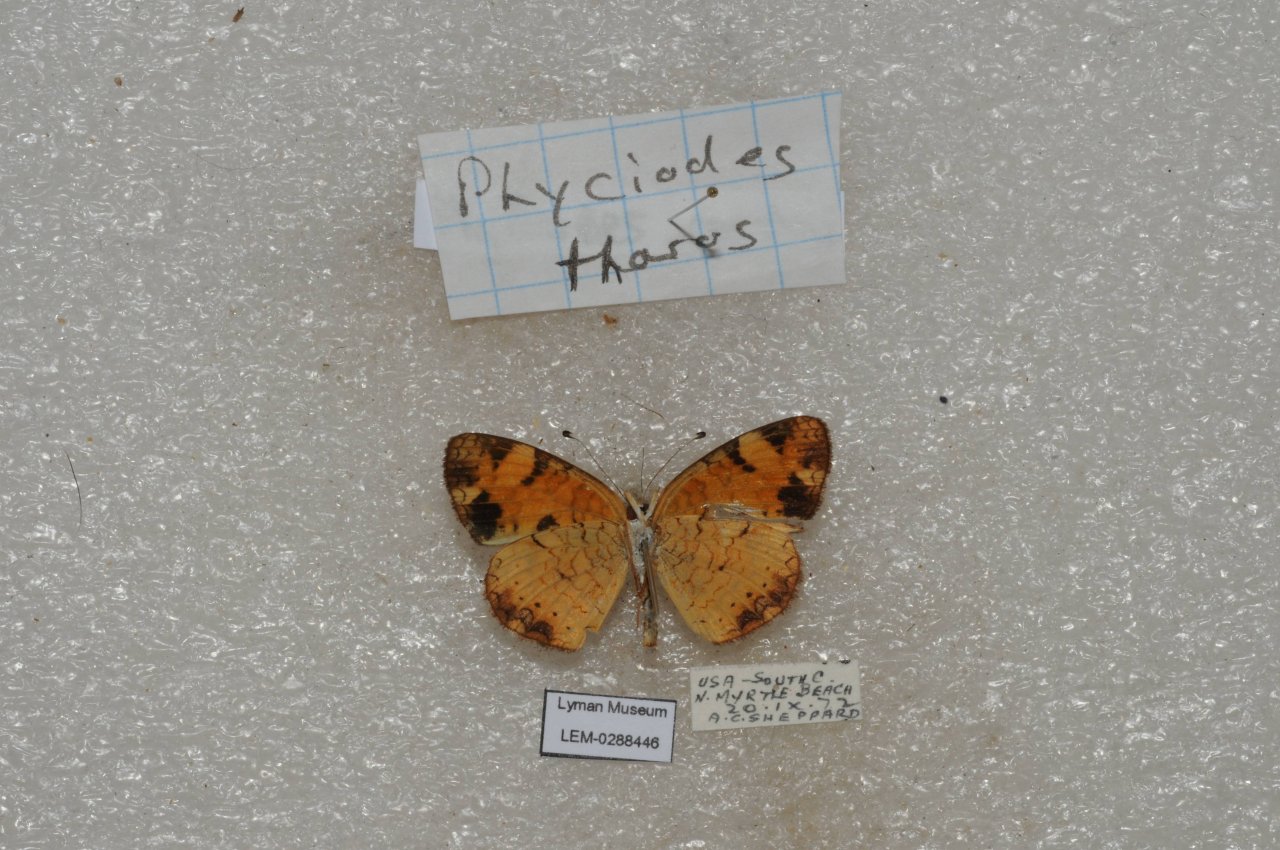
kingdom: Animalia
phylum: Arthropoda
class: Insecta
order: Lepidoptera
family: Nymphalidae
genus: Phyciodes
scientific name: Phyciodes tharos
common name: Pearl Crescent
